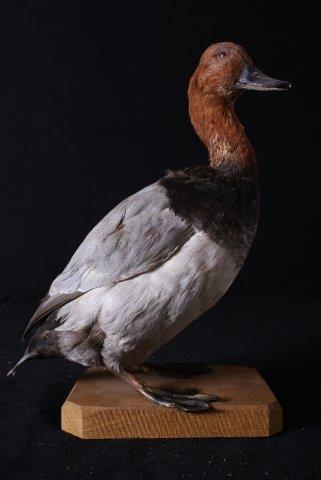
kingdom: Animalia
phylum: Chordata
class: Aves
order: Anseriformes
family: Anatidae
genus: Aythya
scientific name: Aythya ferina
